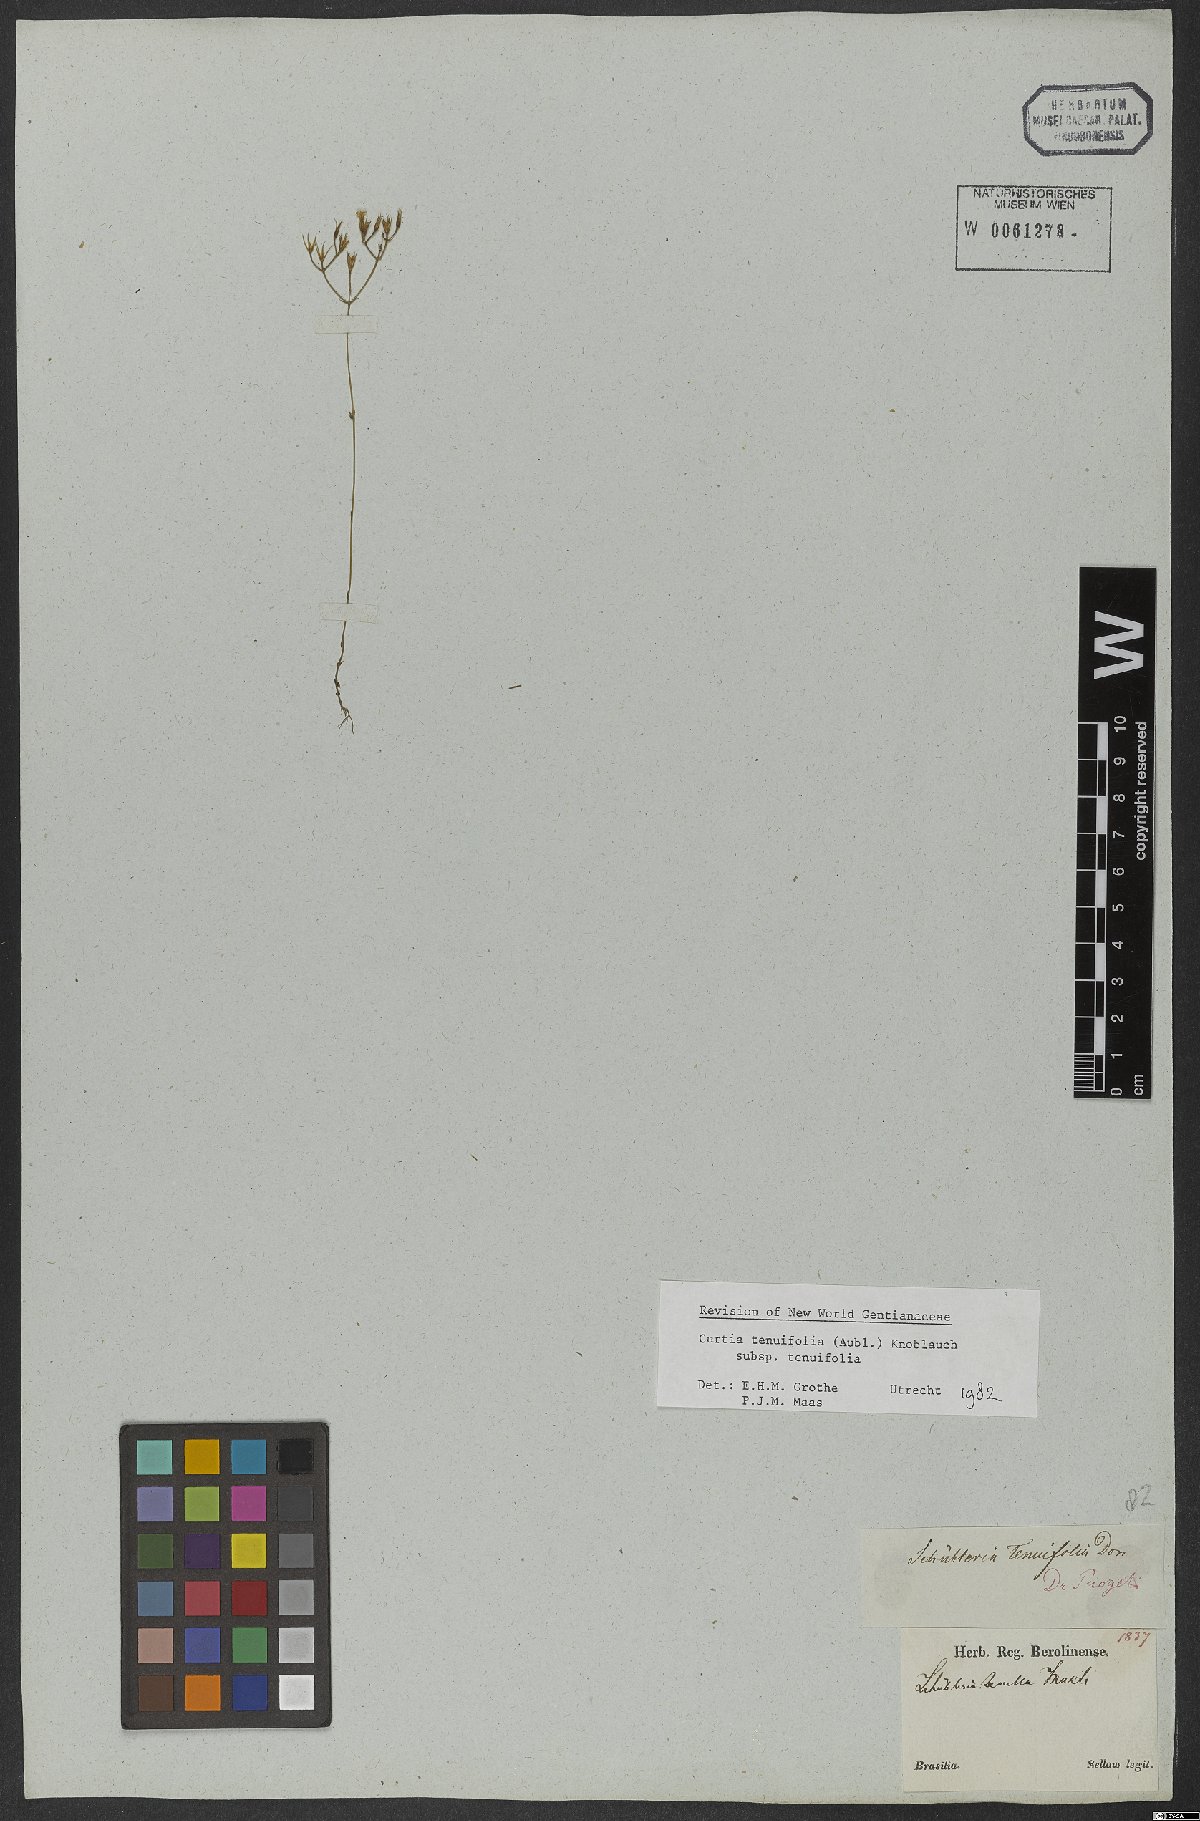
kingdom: Plantae
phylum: Tracheophyta
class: Magnoliopsida
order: Gentianales
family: Gentianaceae
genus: Curtia
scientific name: Curtia tenuifolia
